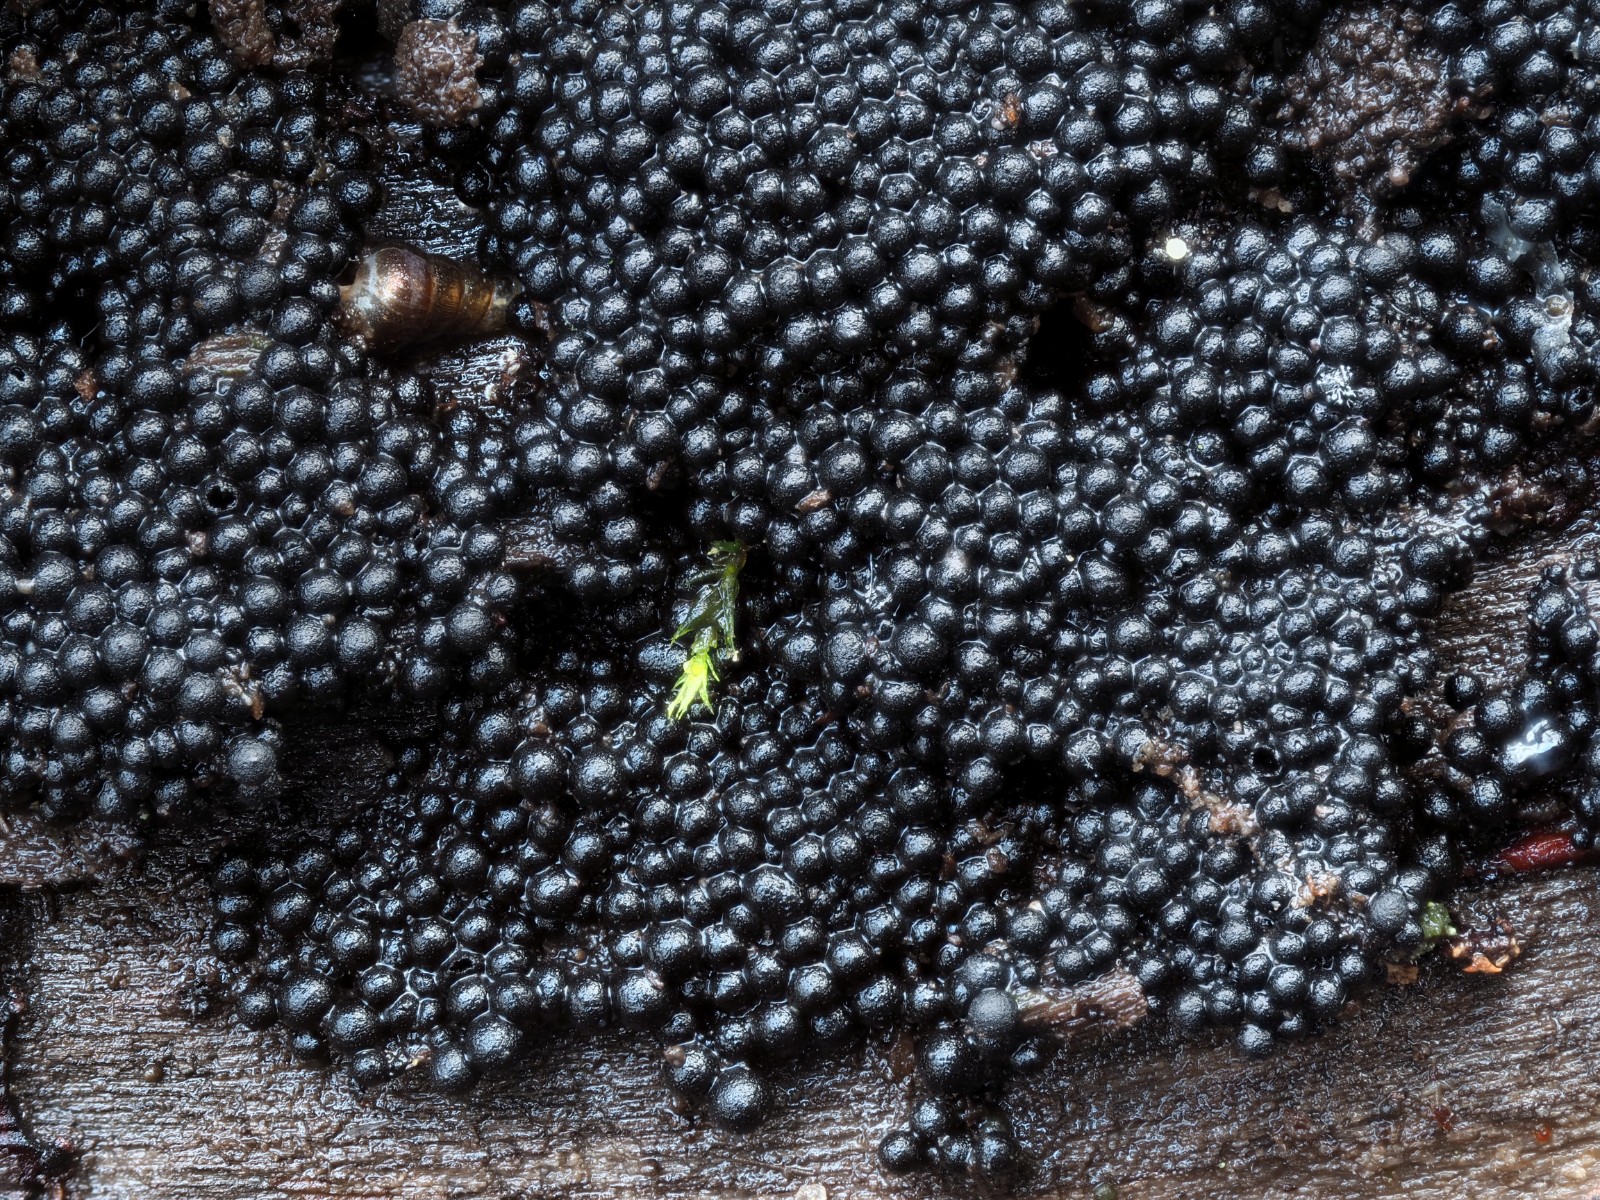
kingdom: Fungi
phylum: Ascomycota
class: Sordariomycetes
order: Sordariales
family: Helminthosphaeriaceae
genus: Ruzenia
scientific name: Ruzenia spermoides
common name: glat børstekerne
